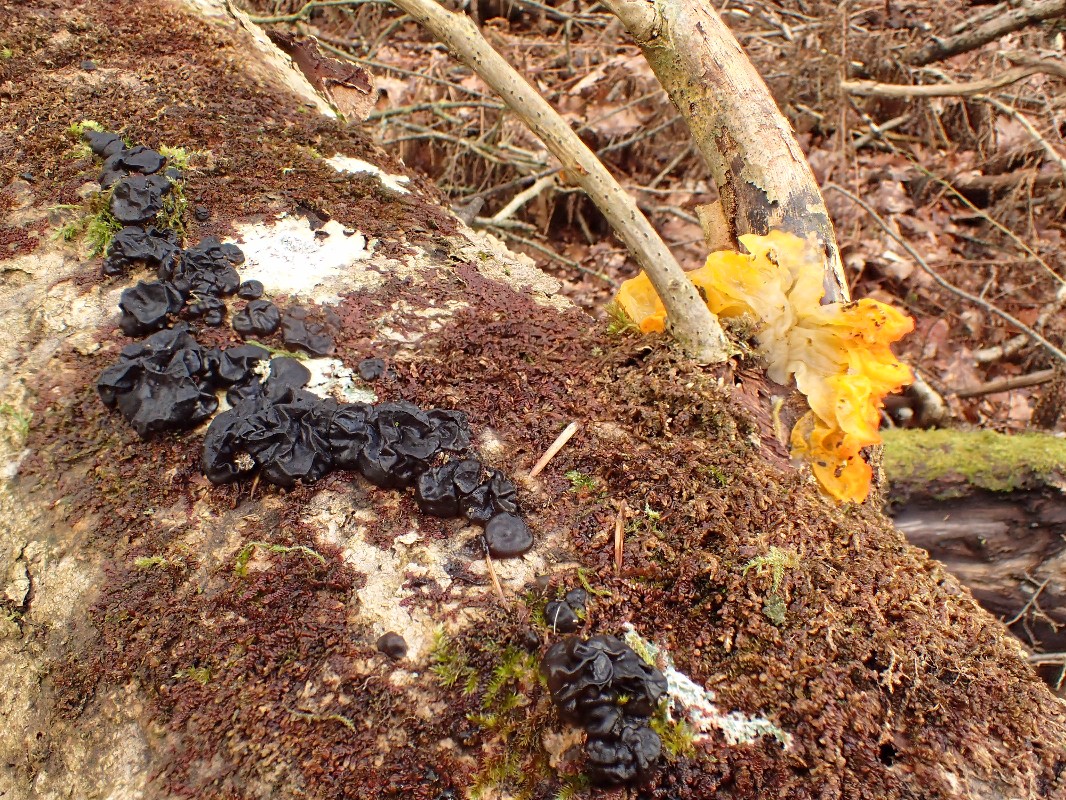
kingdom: Fungi
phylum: Basidiomycota
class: Agaricomycetes
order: Auriculariales
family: Auriculariaceae
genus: Exidia
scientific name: Exidia nigricans
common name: almindelig bævretop
